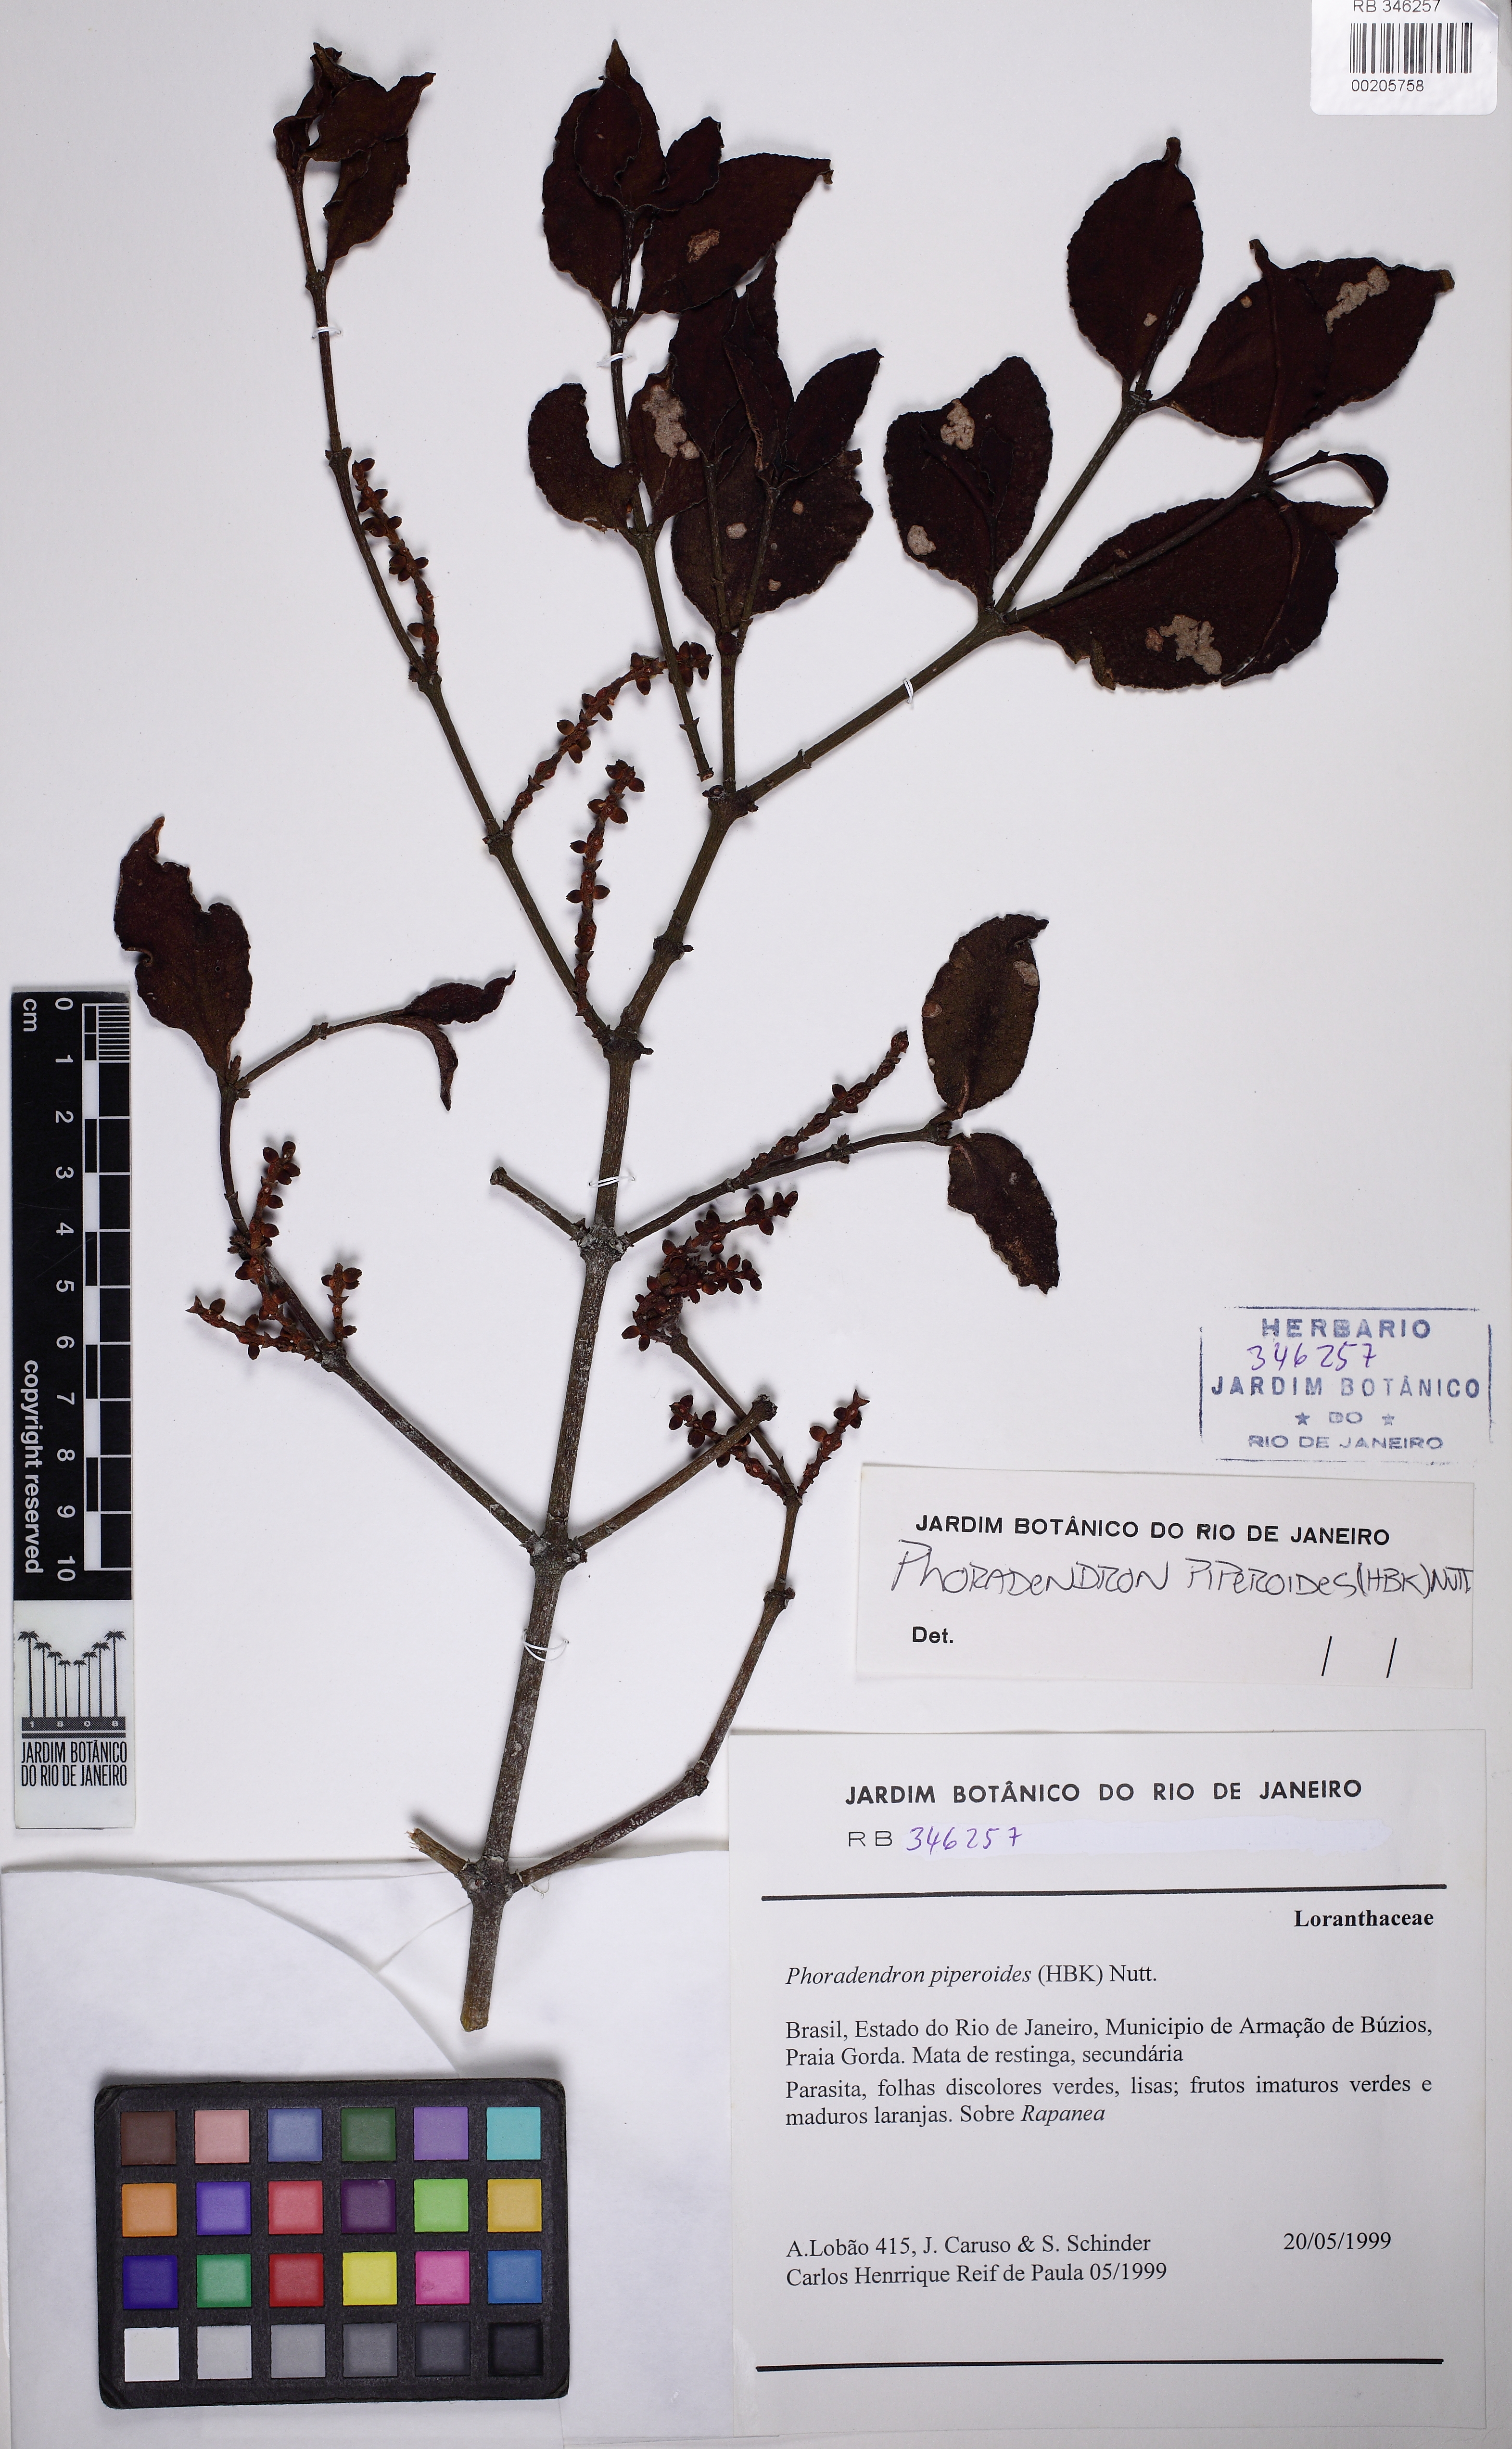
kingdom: Plantae
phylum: Tracheophyta
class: Magnoliopsida
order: Santalales
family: Viscaceae
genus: Phoradendron
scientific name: Phoradendron piperoides
